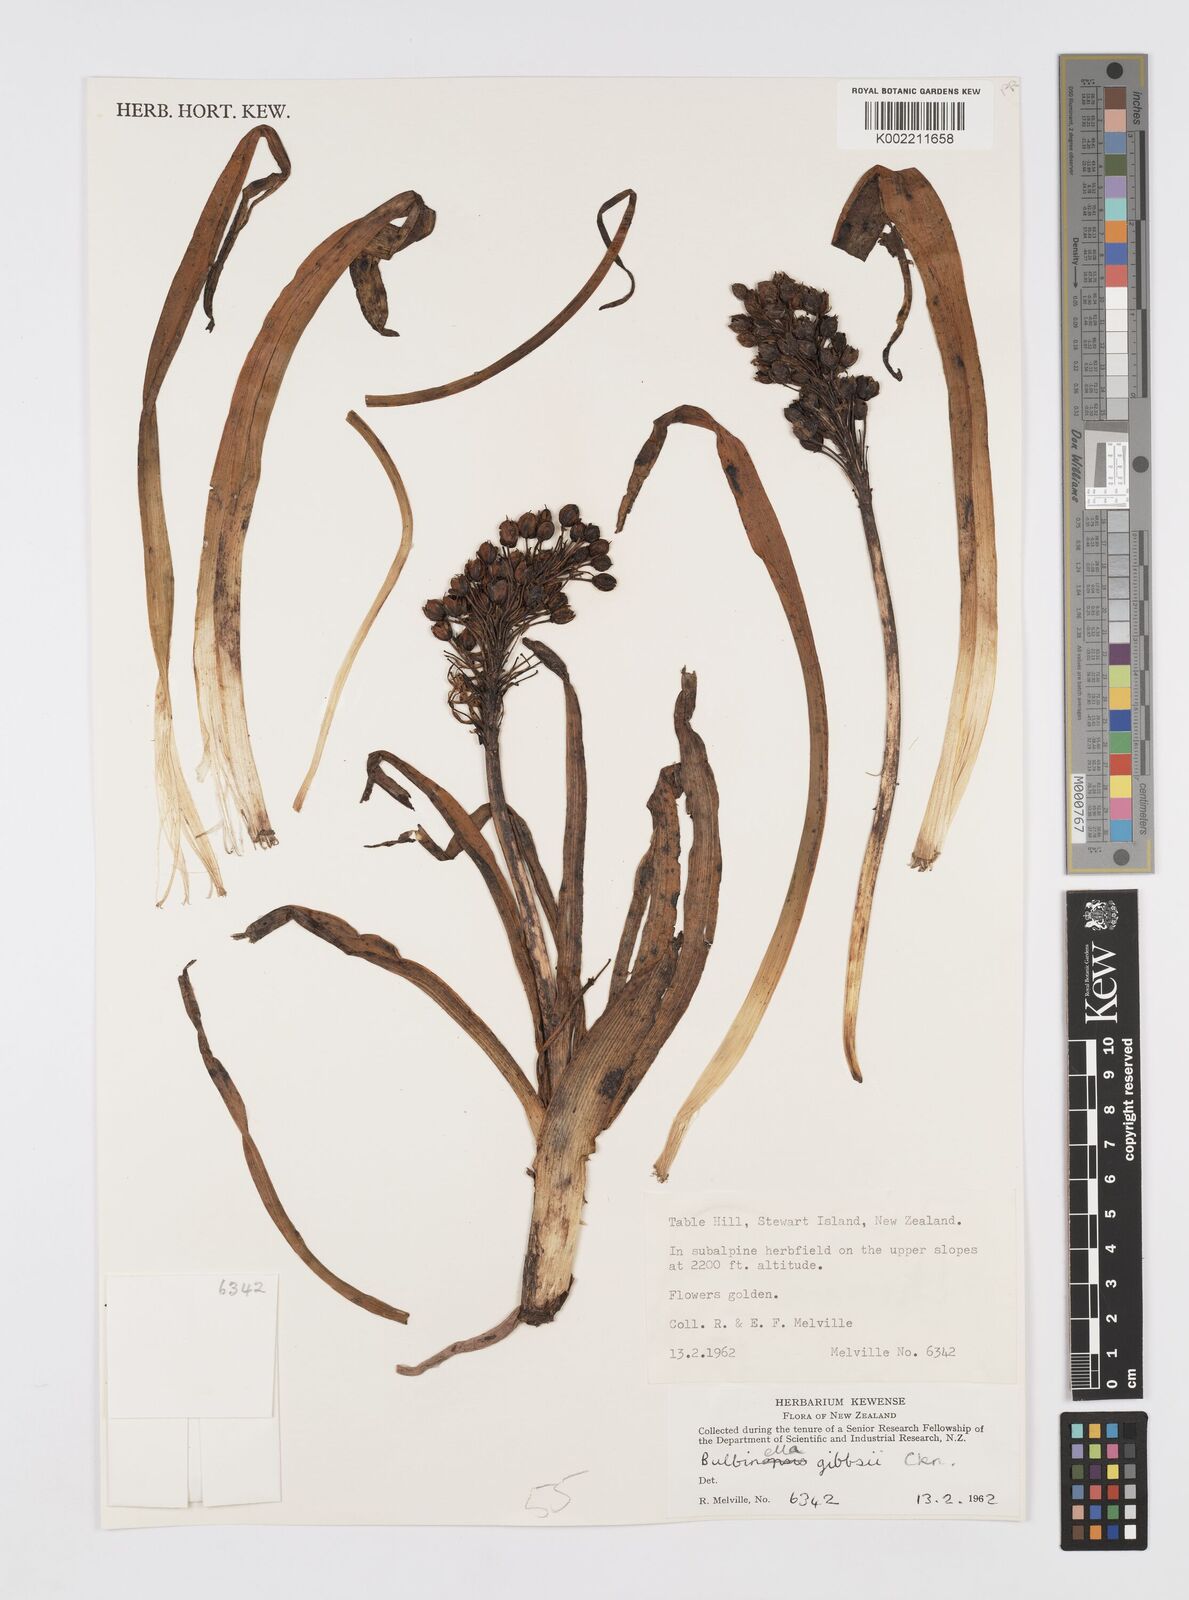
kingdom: Plantae
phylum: Tracheophyta
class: Liliopsida
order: Asparagales
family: Asphodelaceae
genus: Bulbinella
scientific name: Bulbinella gibbsii
